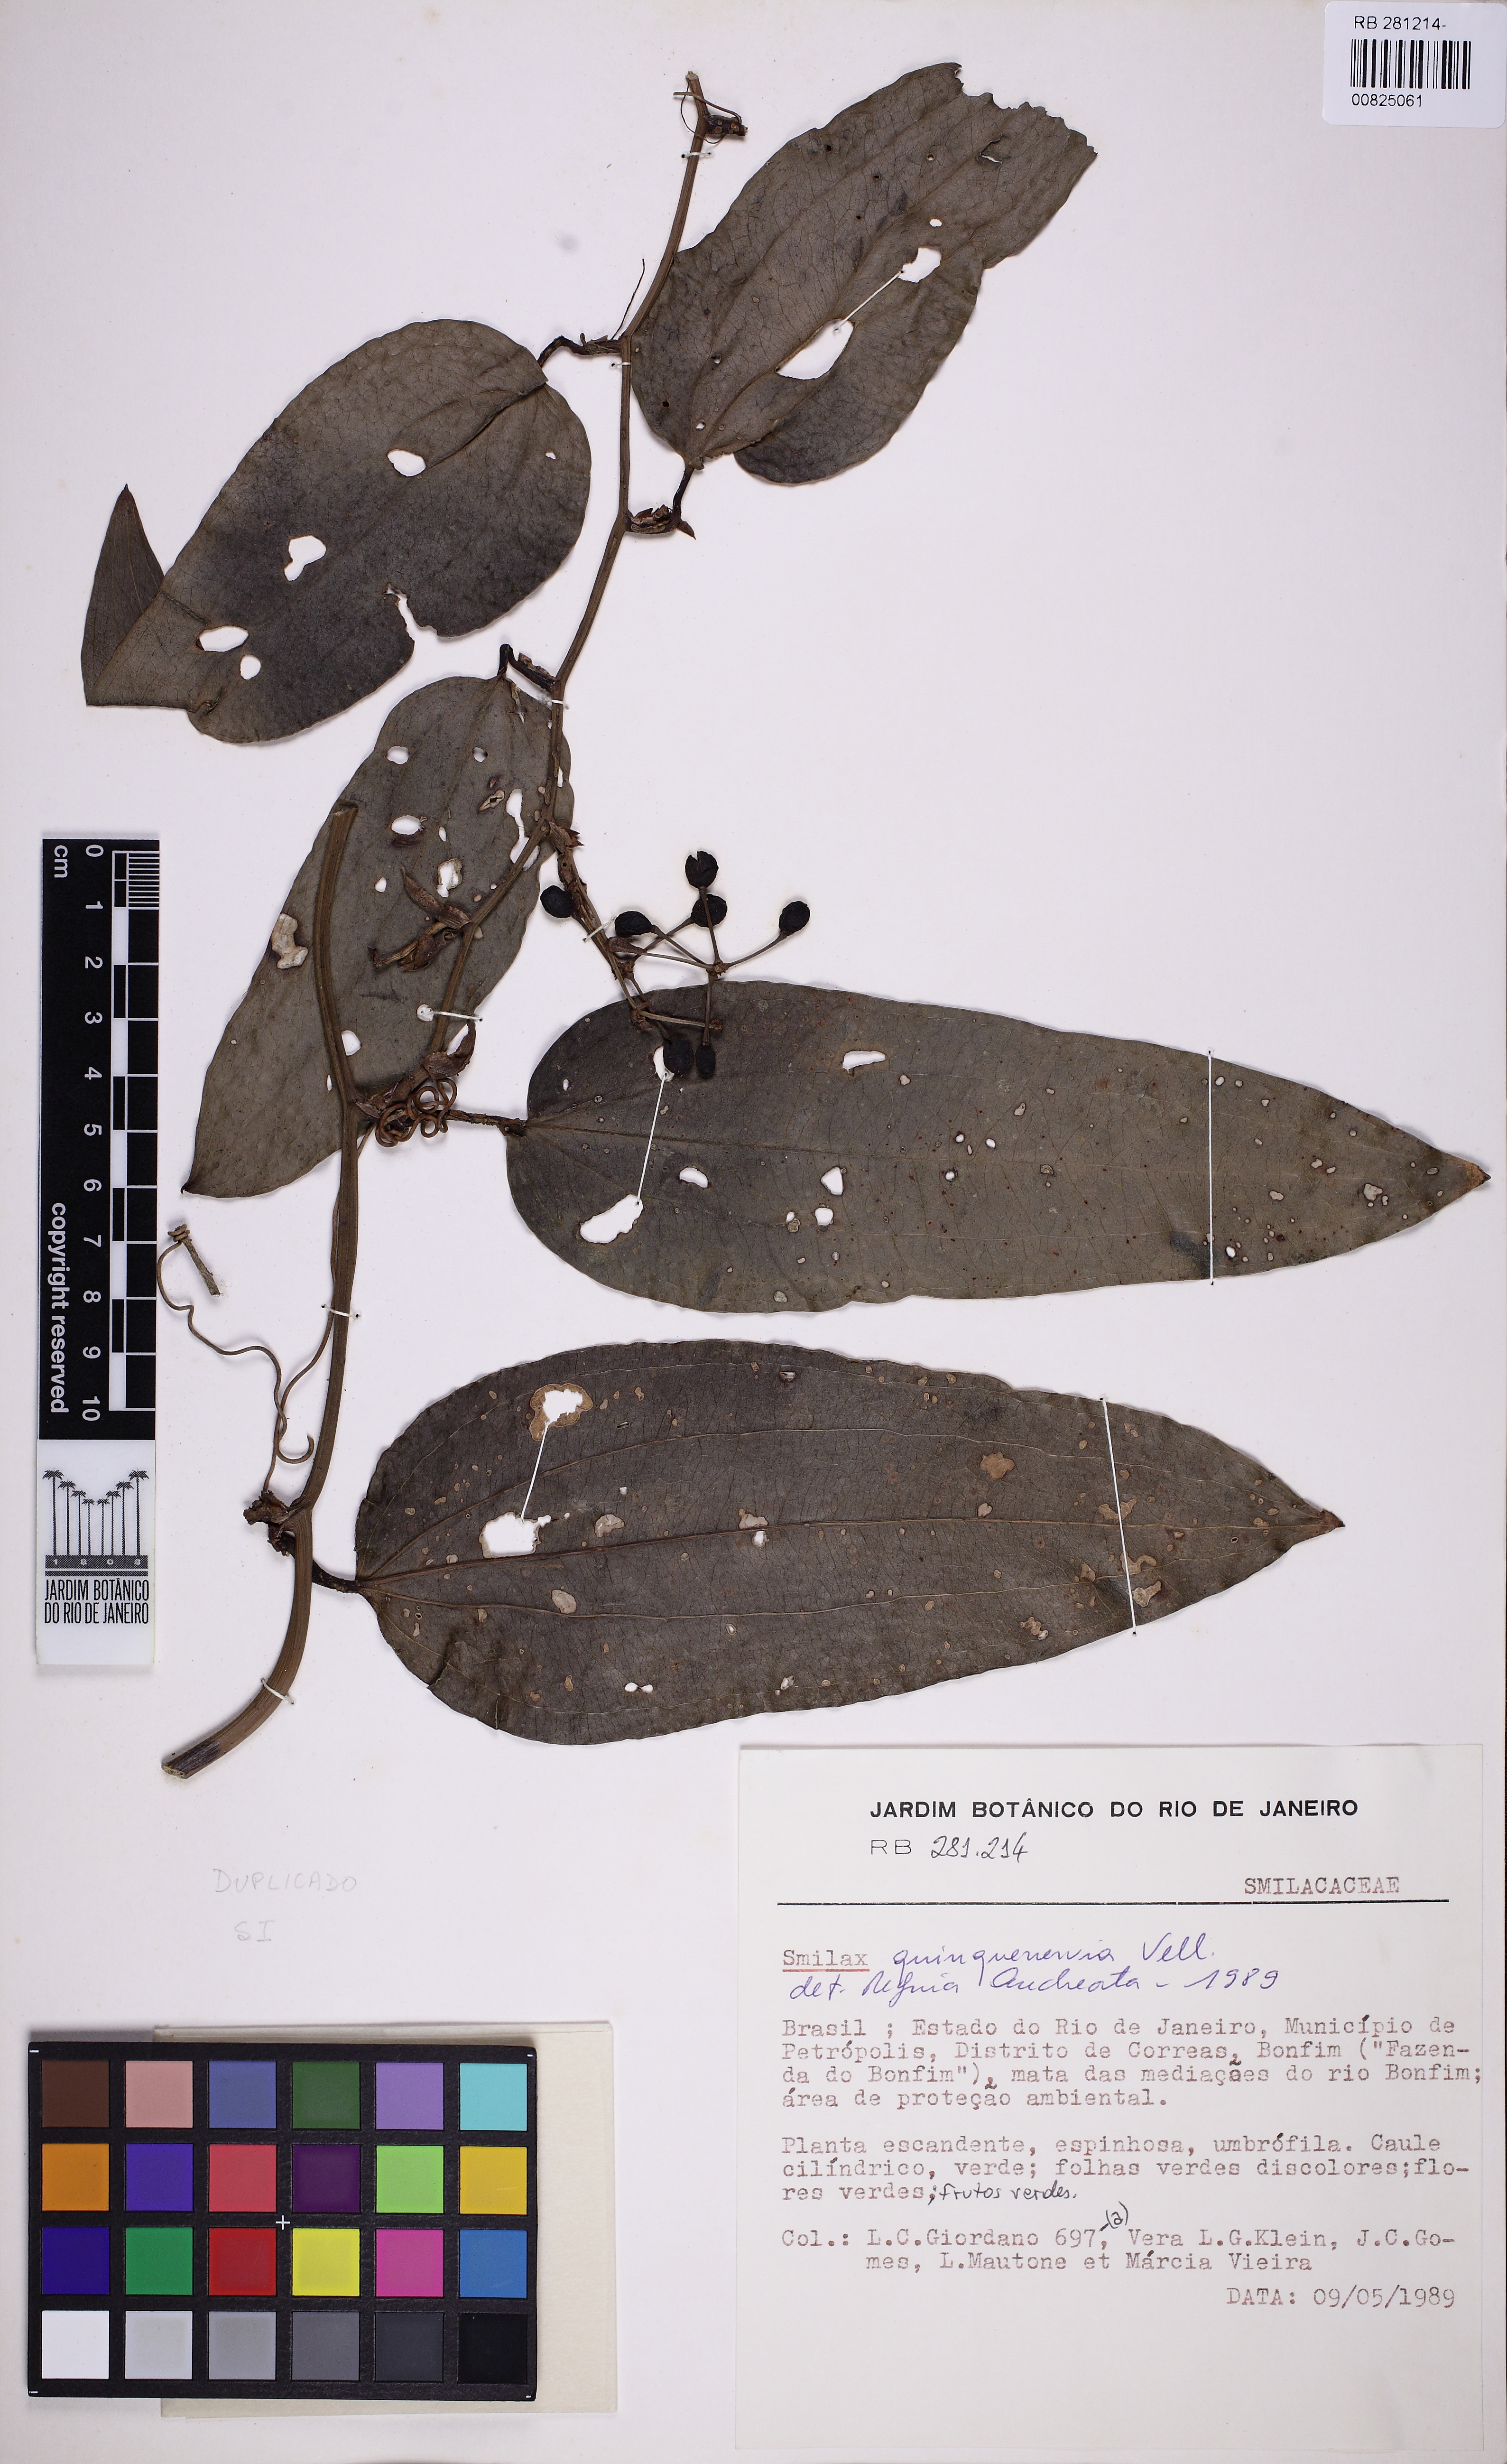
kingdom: Plantae
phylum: Tracheophyta
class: Liliopsida
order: Liliales
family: Smilacaceae
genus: Smilax
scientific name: Smilax quinquenervia
